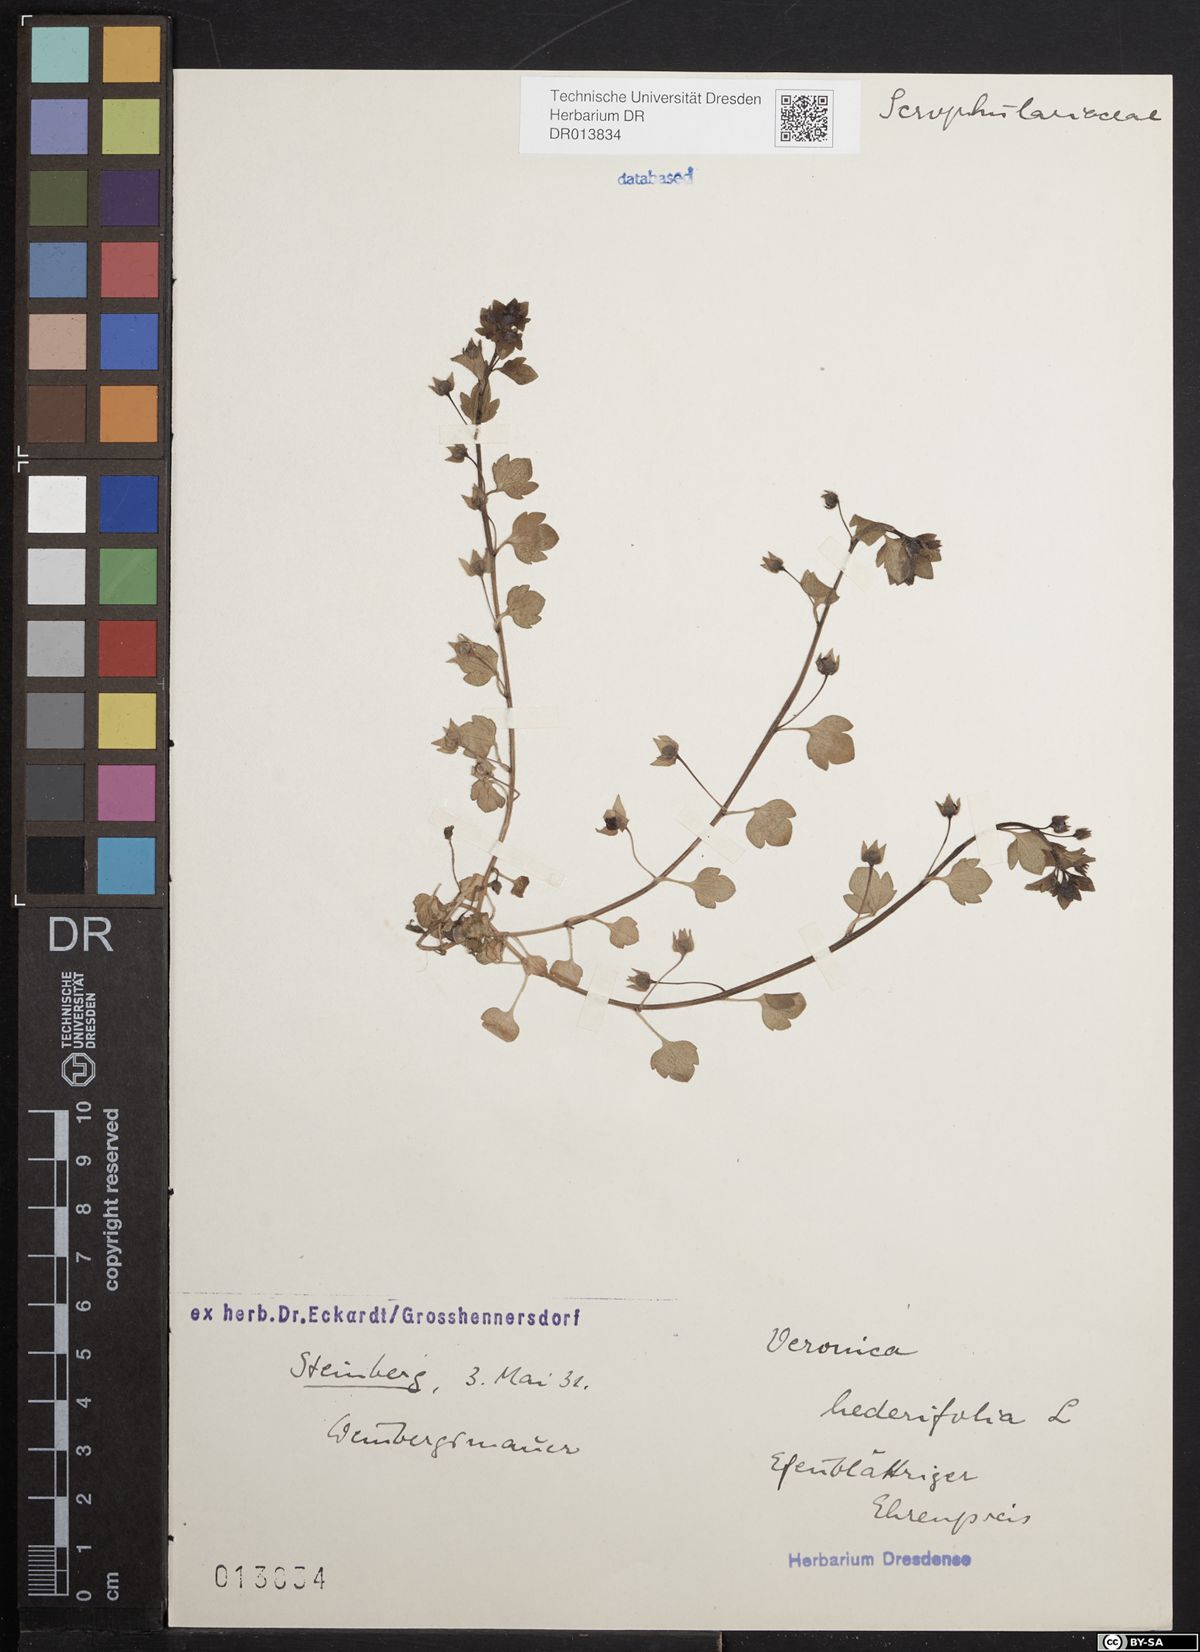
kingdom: Plantae
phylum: Tracheophyta
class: Magnoliopsida
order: Lamiales
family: Plantaginaceae
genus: Veronica
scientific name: Veronica hederifolia
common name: Ivy-leaved speedwell
